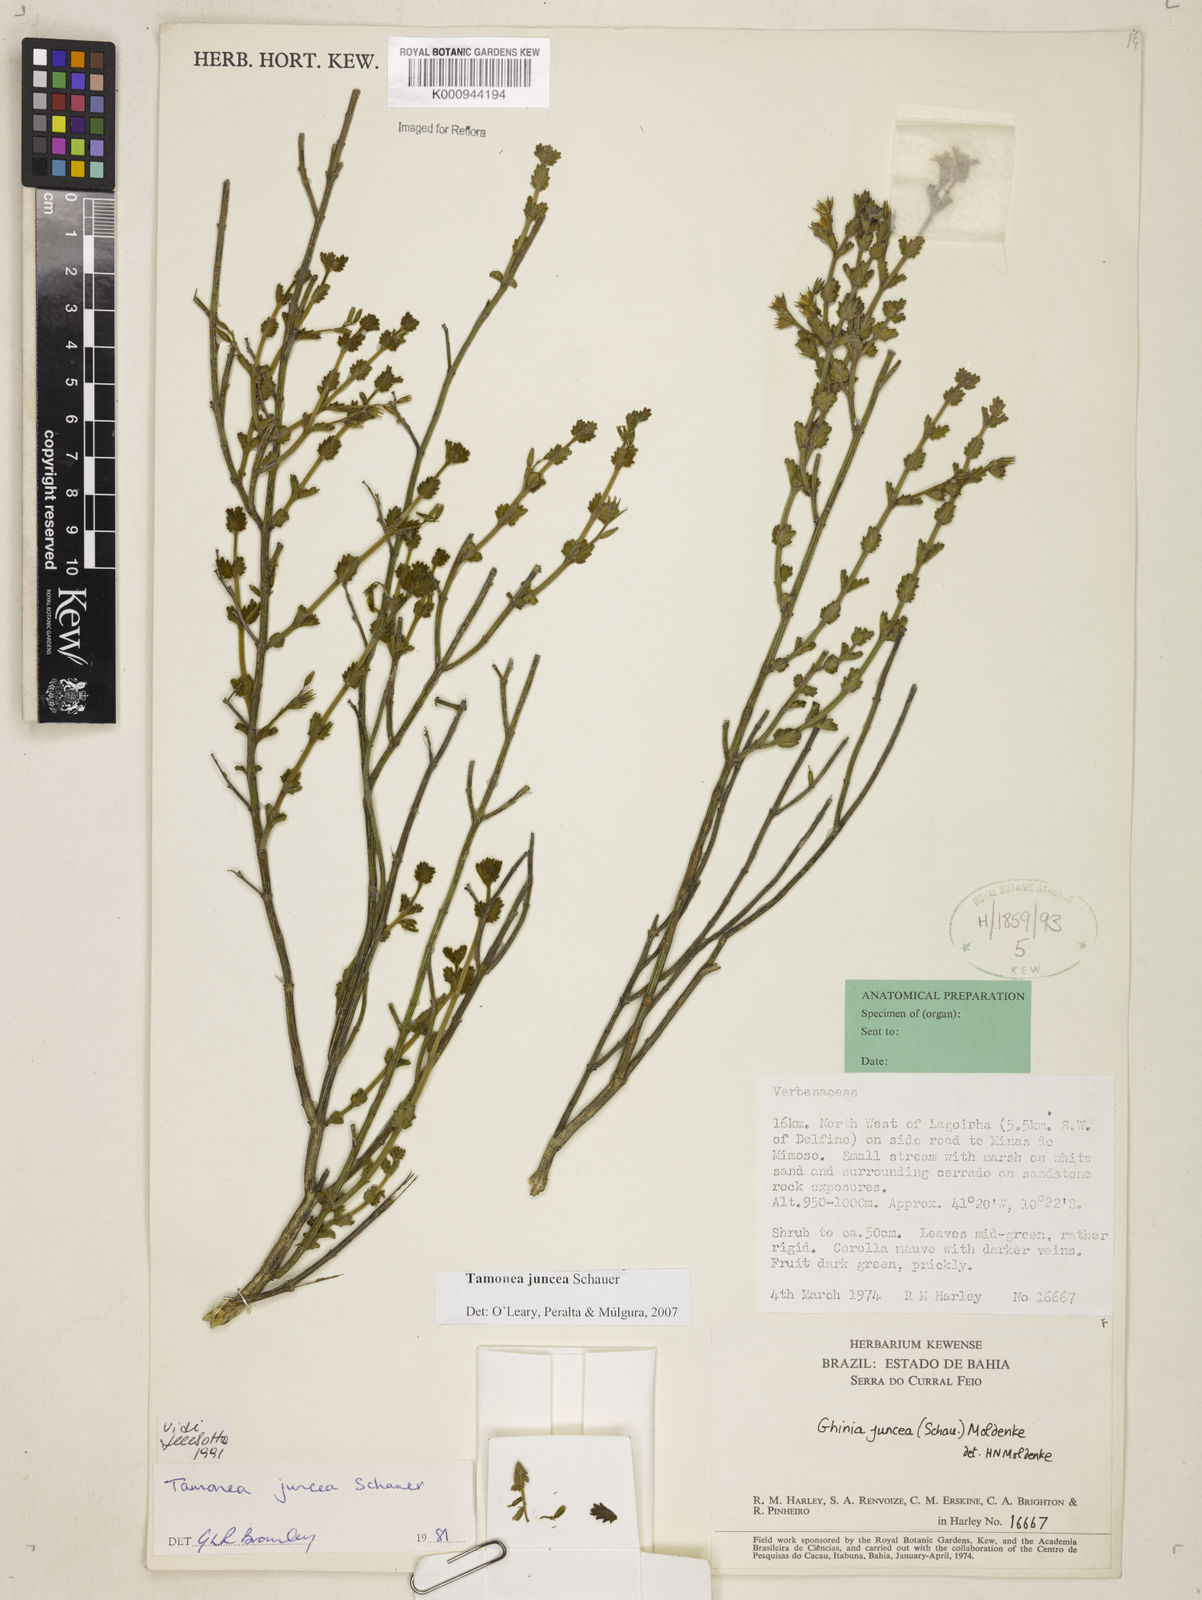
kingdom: Plantae
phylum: Tracheophyta
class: Magnoliopsida
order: Lamiales
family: Verbenaceae
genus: Tamonea
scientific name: Tamonea juncea
